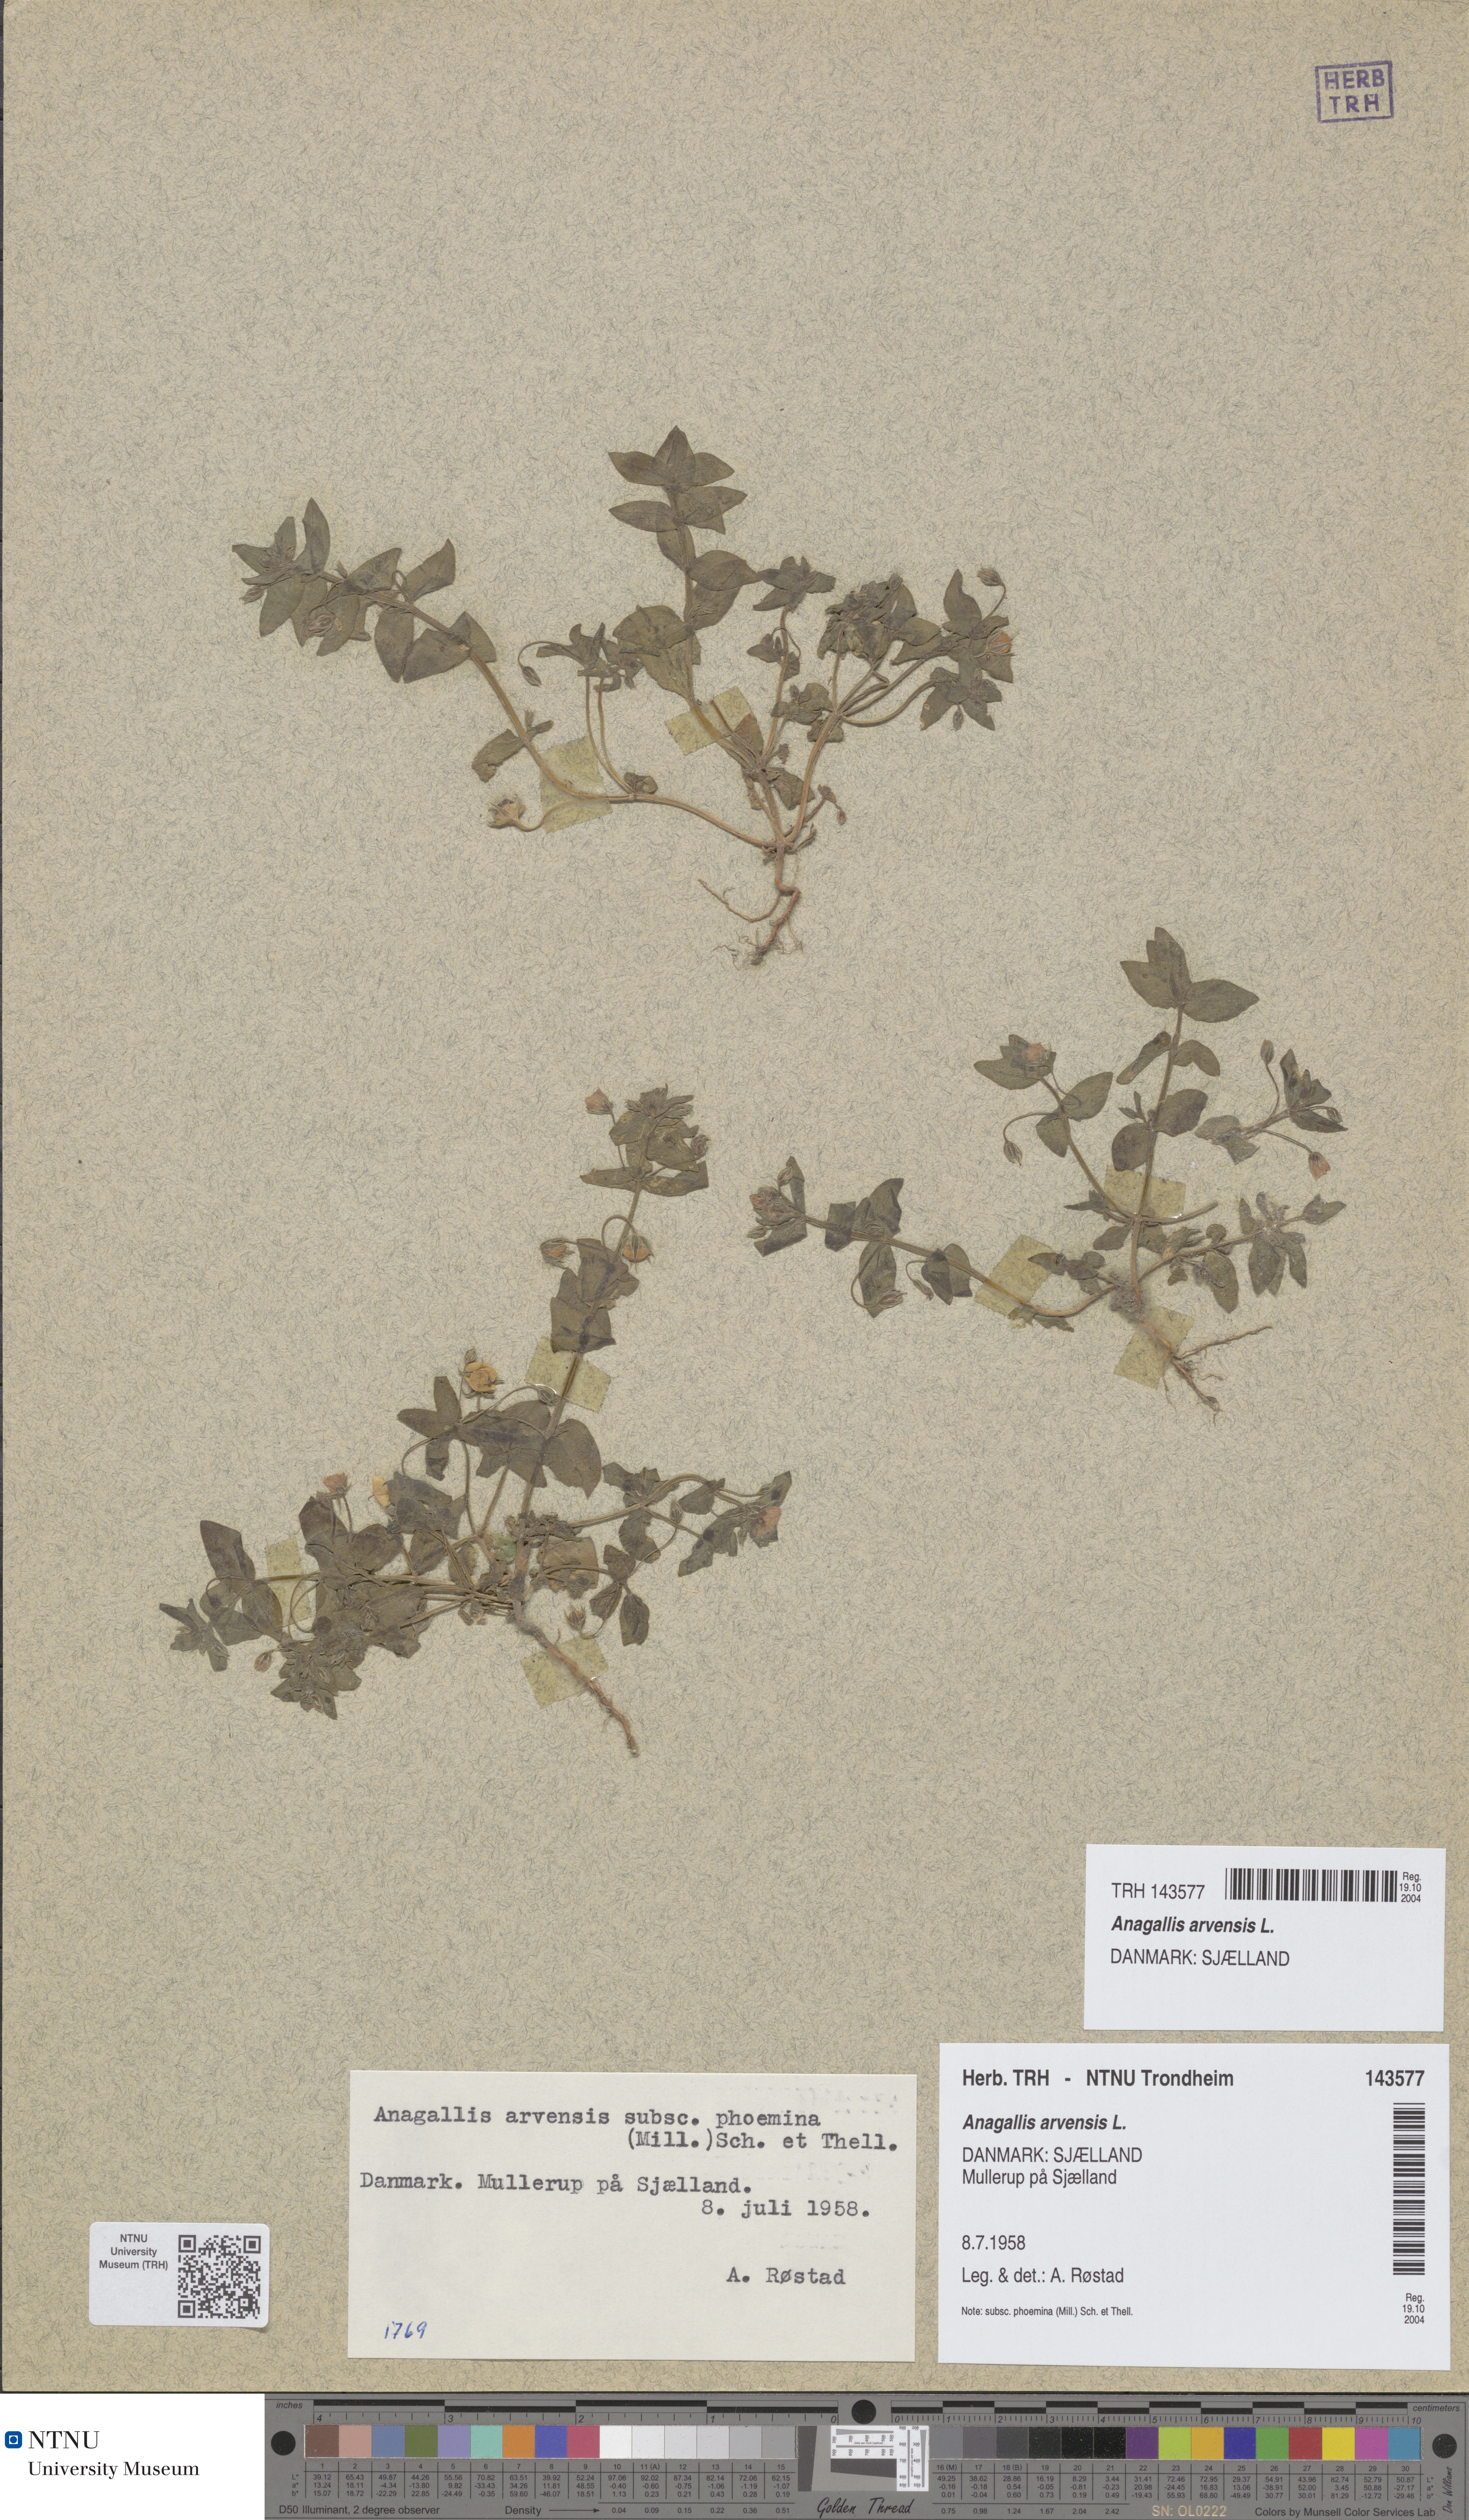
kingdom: Plantae
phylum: Tracheophyta
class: Magnoliopsida
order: Ericales
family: Primulaceae
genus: Lysimachia
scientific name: Lysimachia arvensis
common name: Scarlet pimpernel
